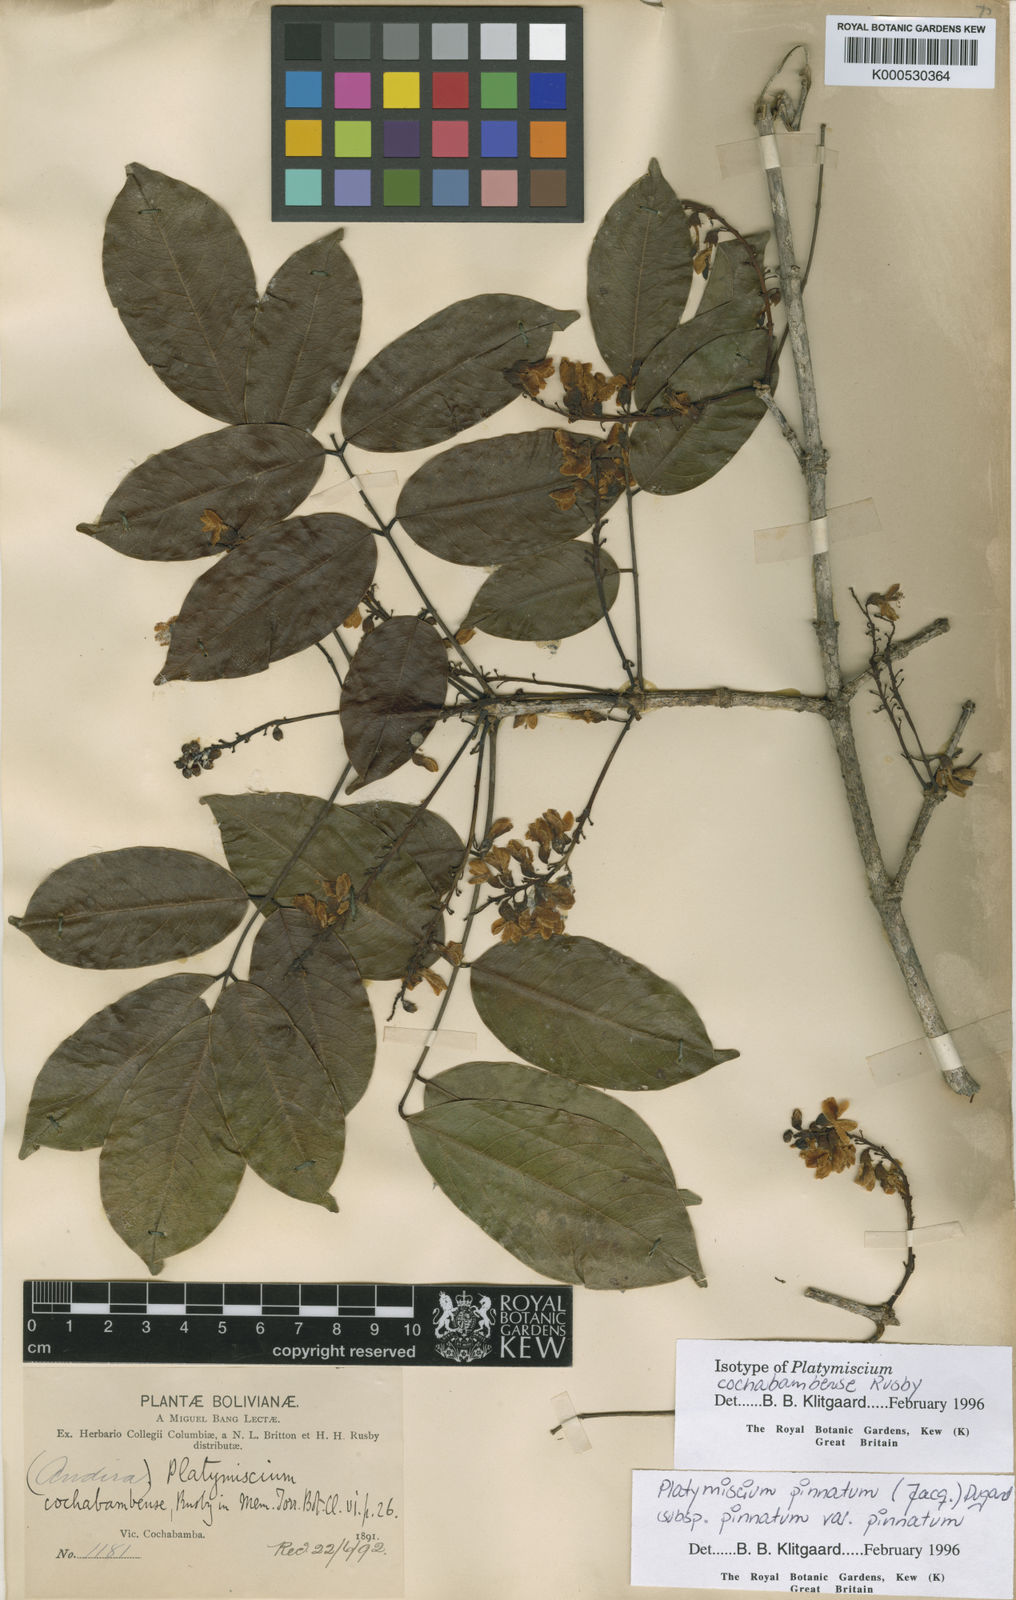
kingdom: Plantae
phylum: Tracheophyta
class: Magnoliopsida
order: Fabales
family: Fabaceae
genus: Platymiscium
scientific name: Platymiscium pinnatum
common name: Panama redwood
